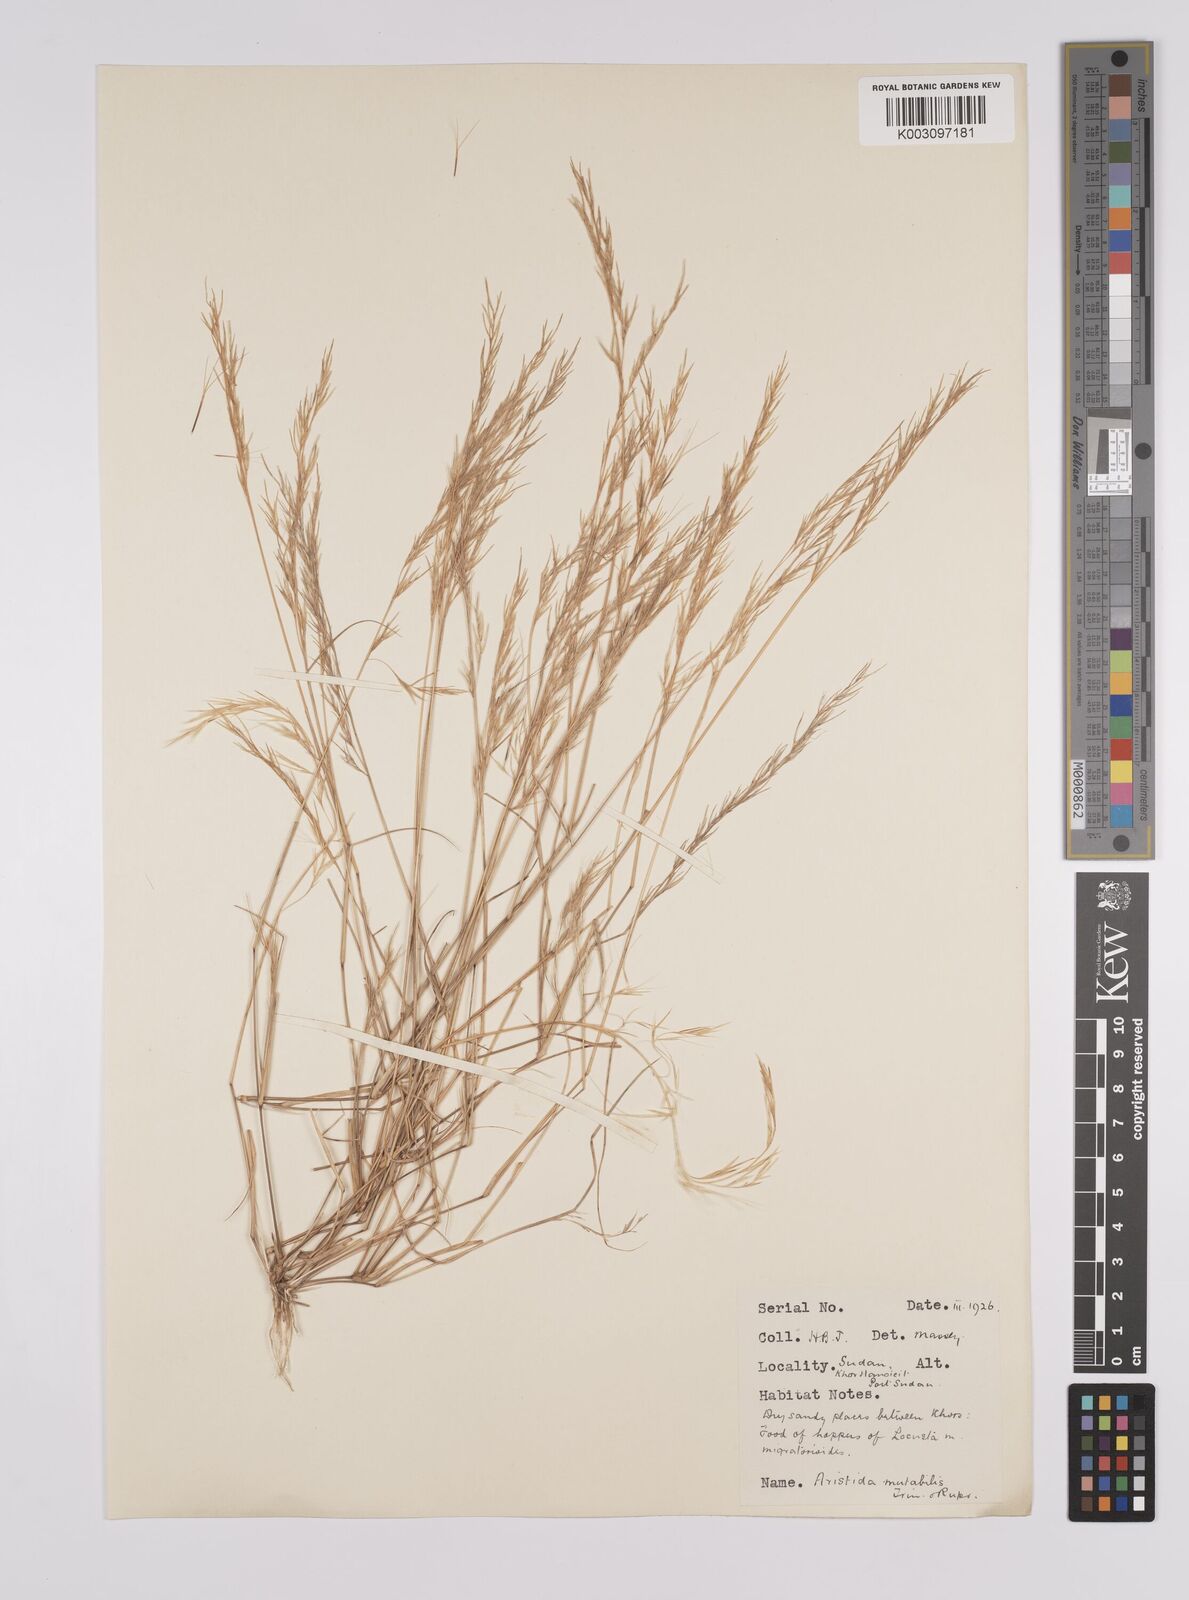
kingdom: Plantae
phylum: Tracheophyta
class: Liliopsida
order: Poales
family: Poaceae
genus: Aristida
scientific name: Aristida mutabilis
